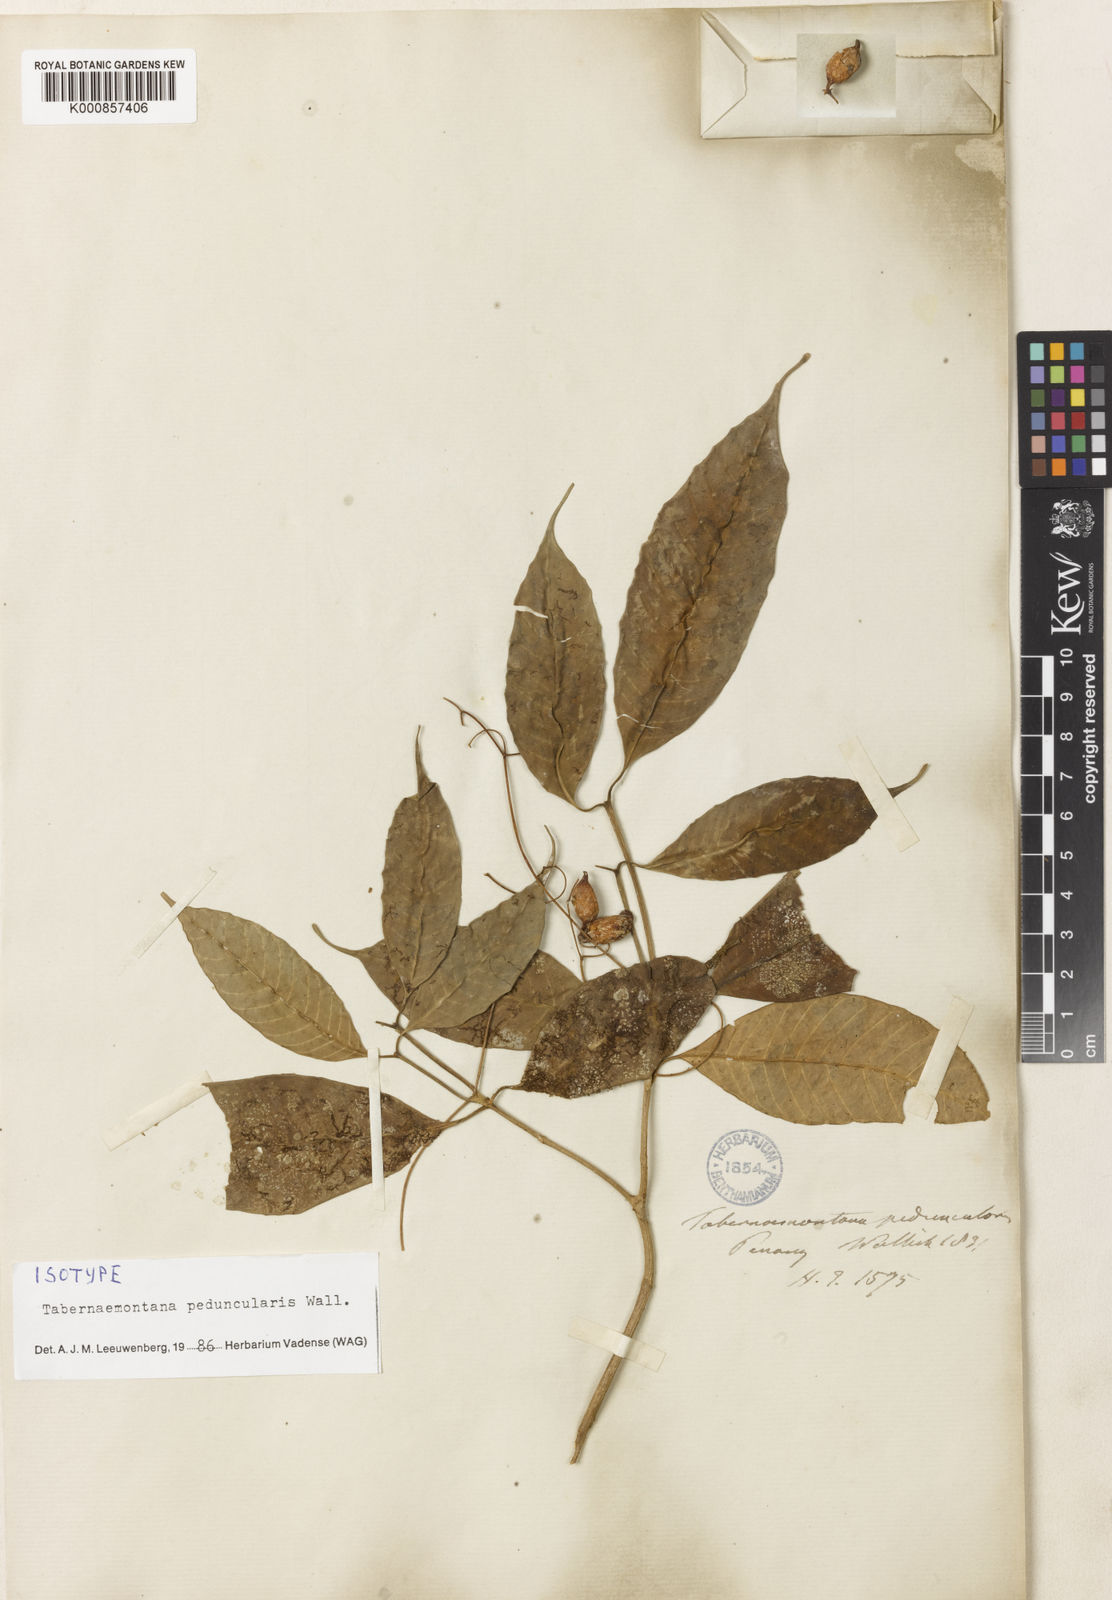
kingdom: Plantae
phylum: Tracheophyta
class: Magnoliopsida
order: Gentianales
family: Apocynaceae
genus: Tabernaemontana
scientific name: Tabernaemontana peduncularis
